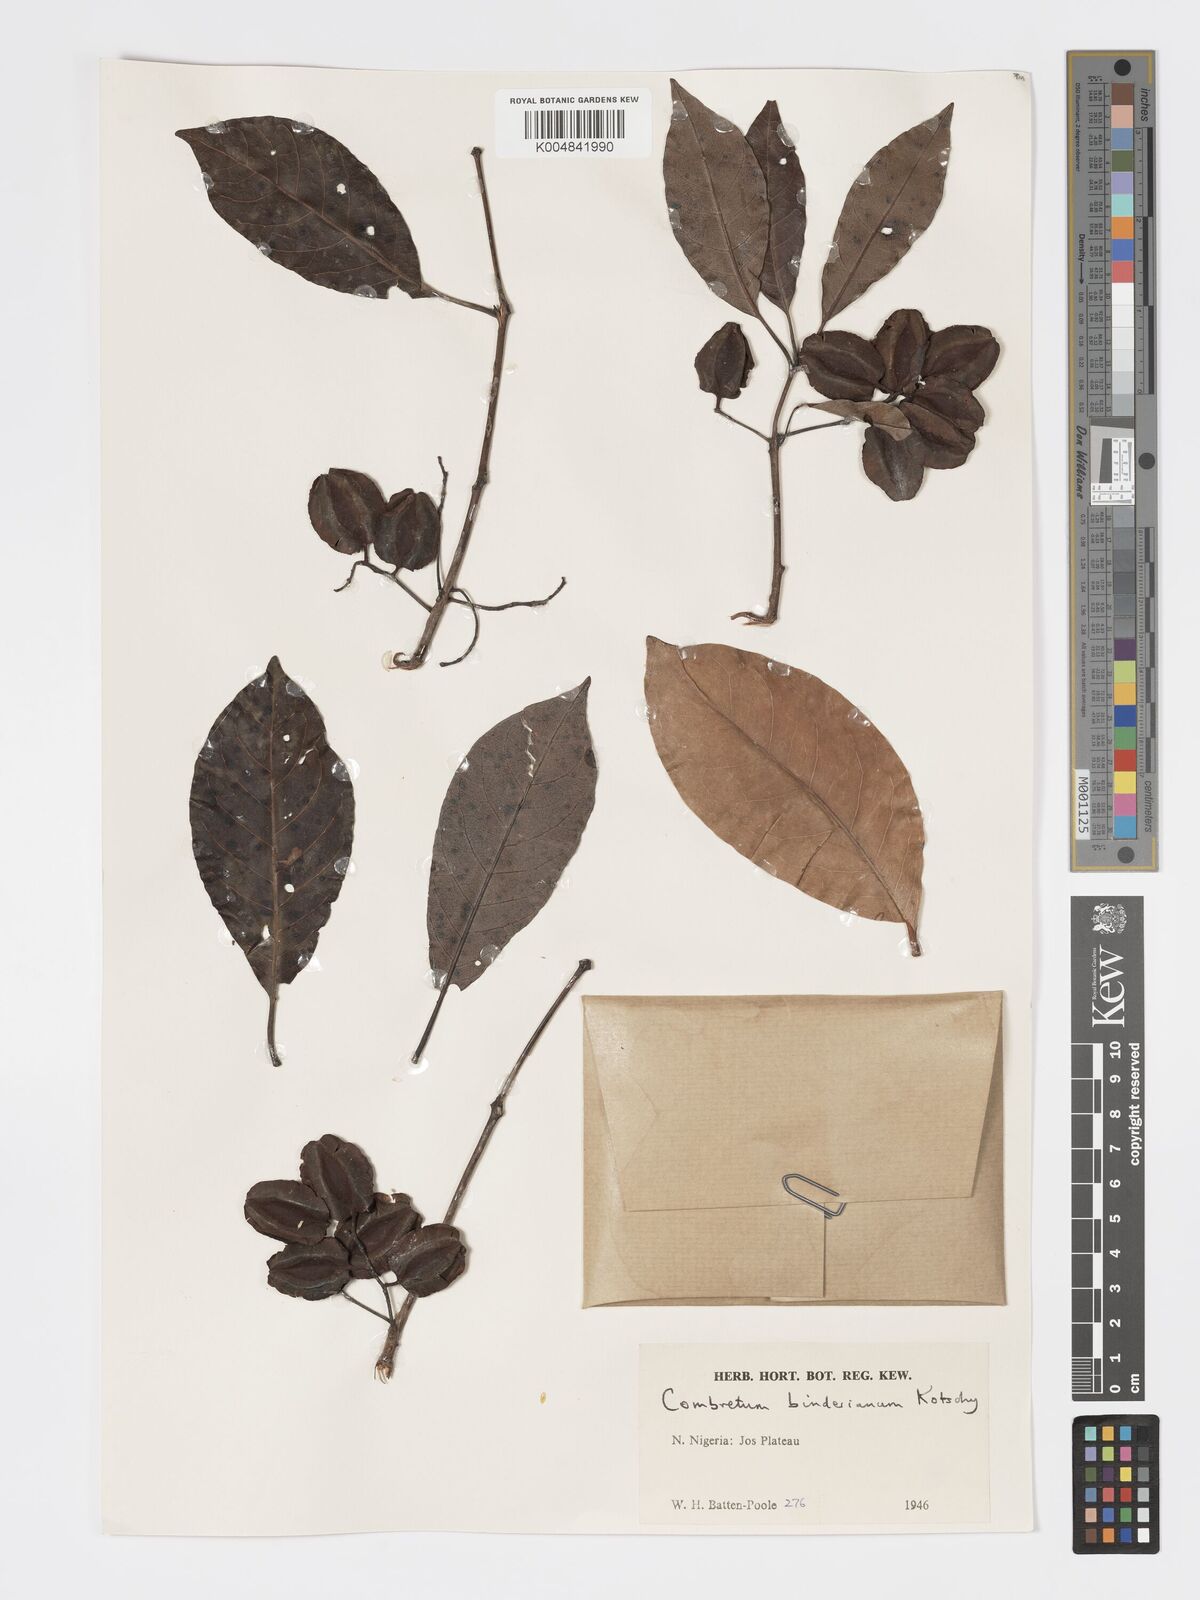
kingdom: Plantae
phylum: Tracheophyta
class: Magnoliopsida
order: Myrtales
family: Combretaceae
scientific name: Combretaceae
